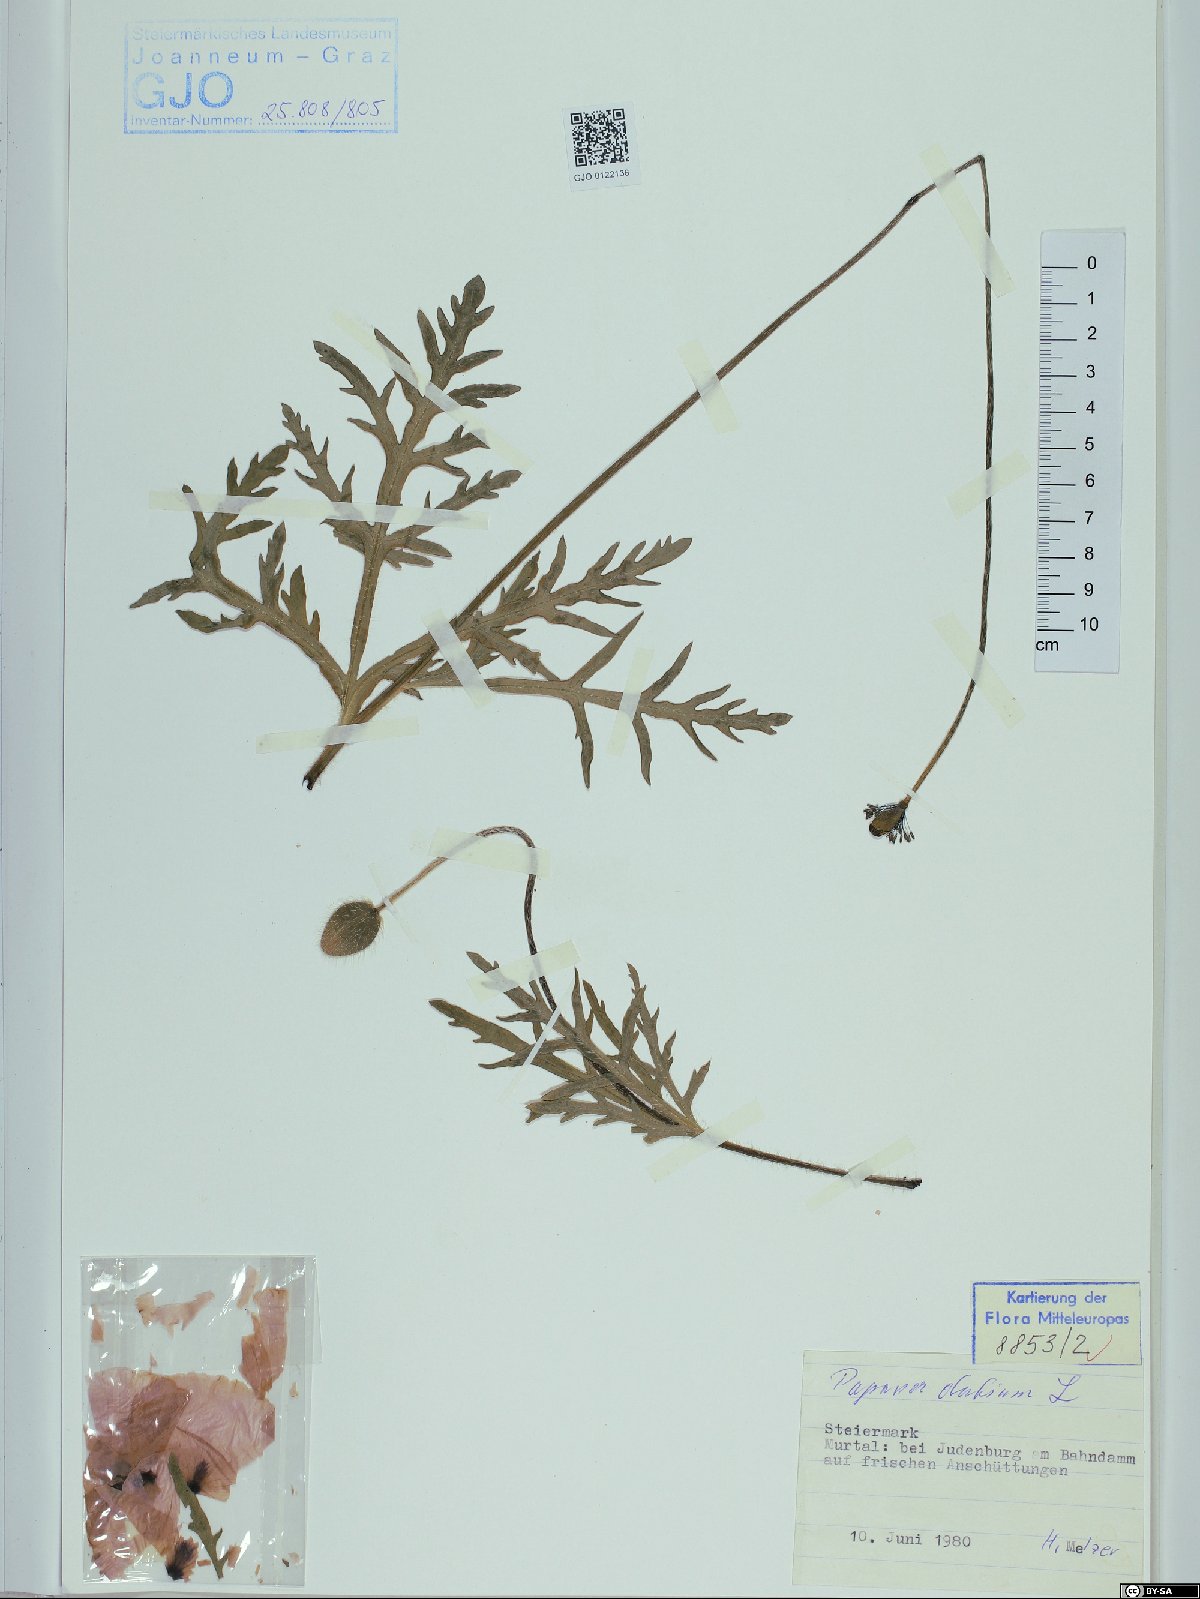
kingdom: Plantae
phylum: Tracheophyta
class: Magnoliopsida
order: Ranunculales
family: Papaveraceae
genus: Papaver
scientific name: Papaver dubium
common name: Long-headed poppy
